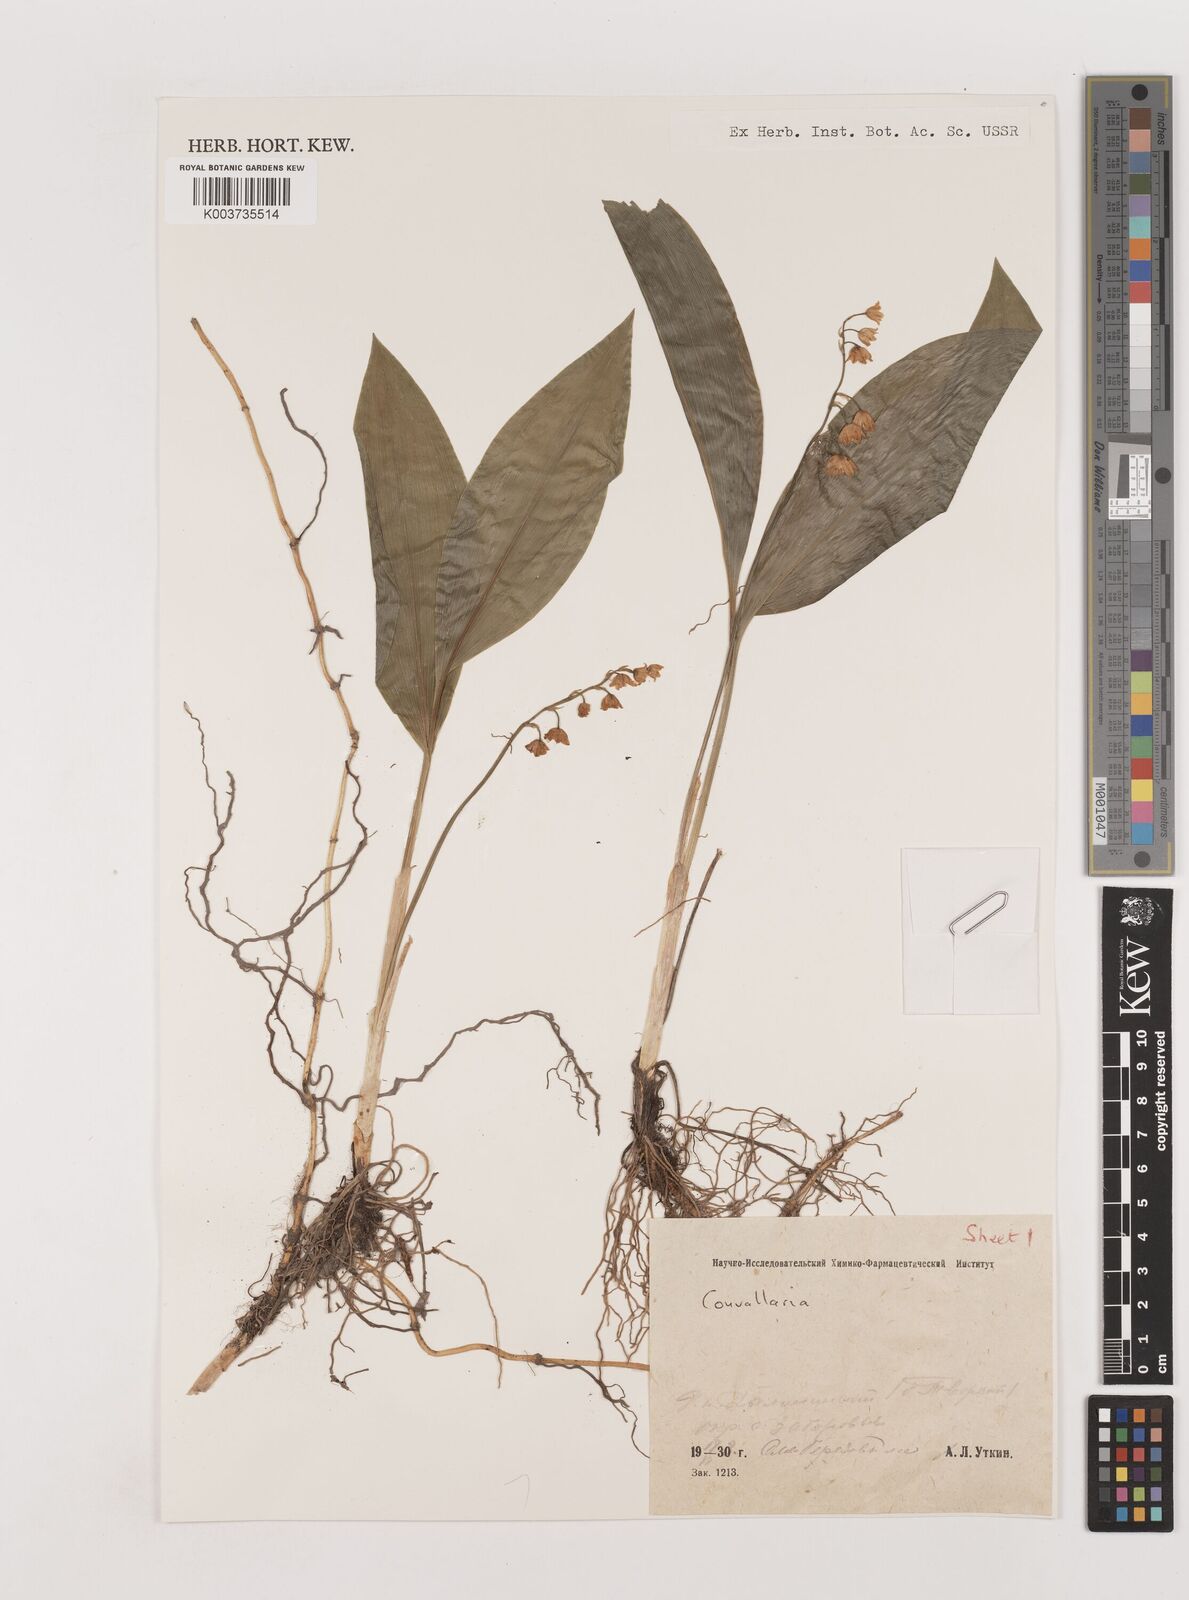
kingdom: Plantae
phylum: Tracheophyta
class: Liliopsida
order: Asparagales
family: Asparagaceae
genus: Convallaria
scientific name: Convallaria keiskei
